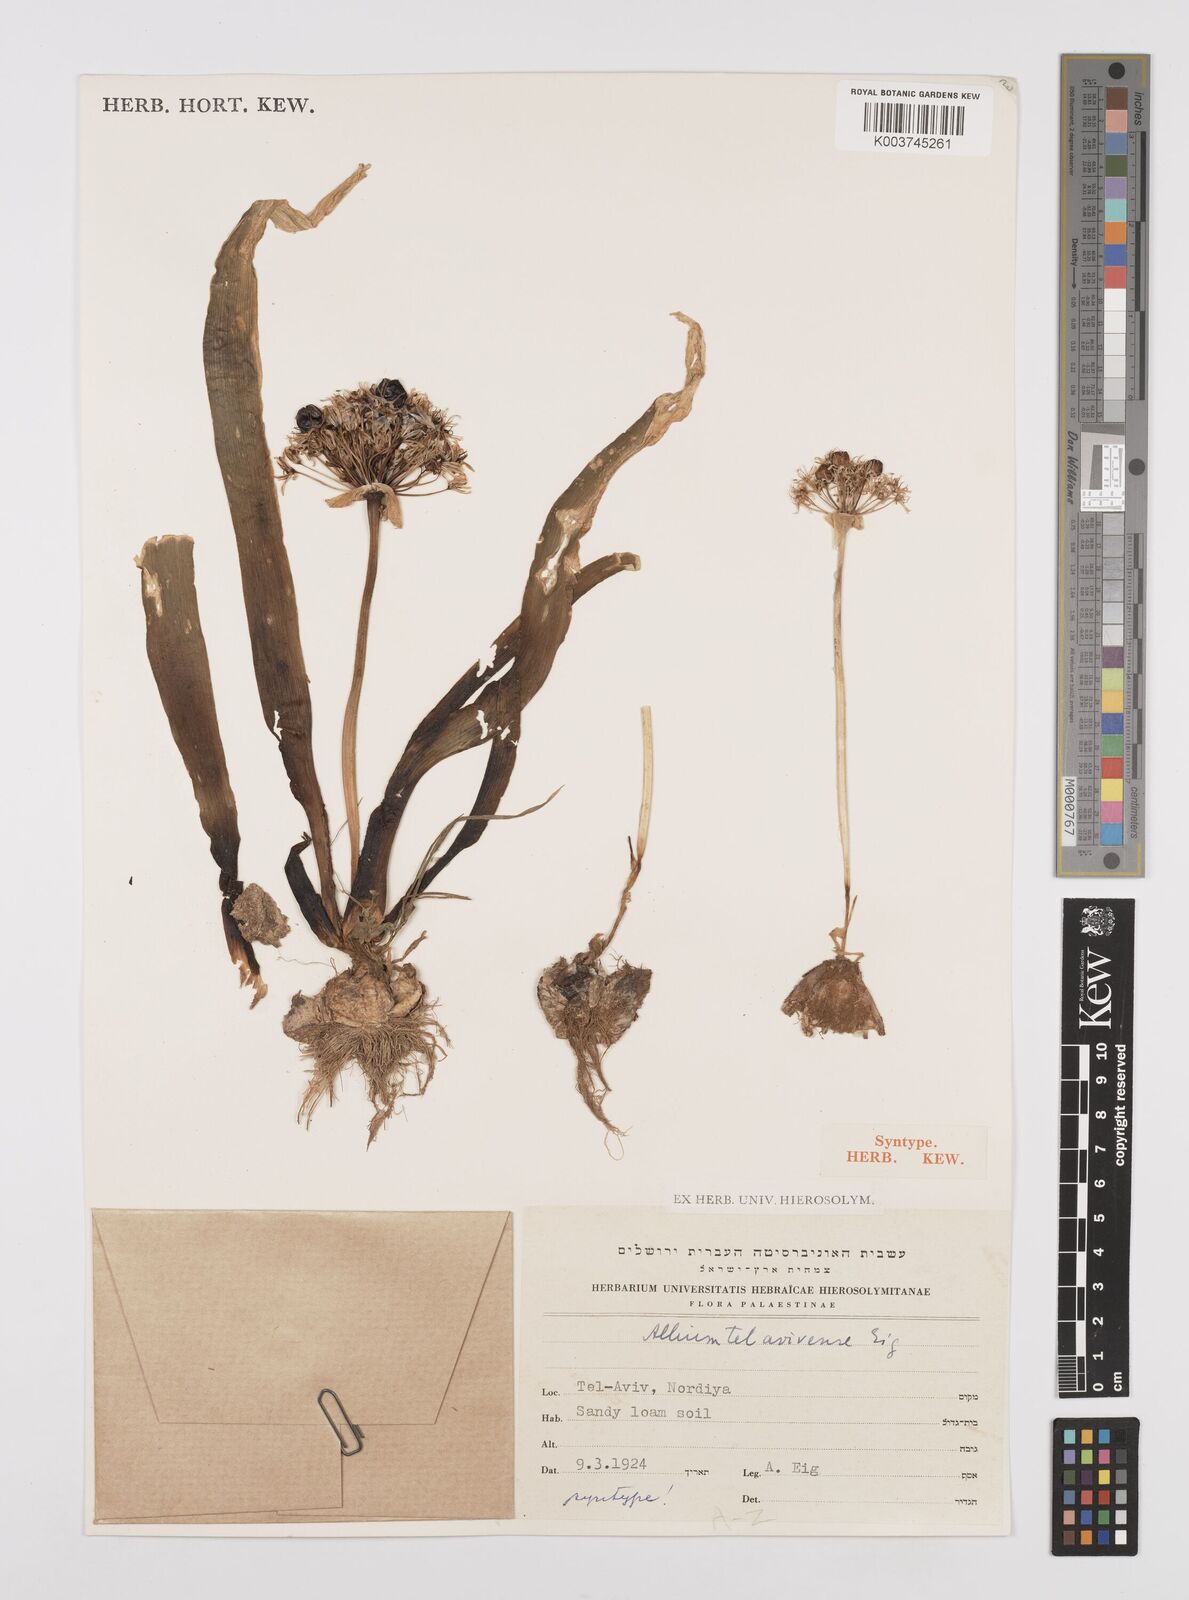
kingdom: Plantae
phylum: Tracheophyta
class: Liliopsida
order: Asparagales
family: Amaryllidaceae
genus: Allium
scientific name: Allium tel-avivense
